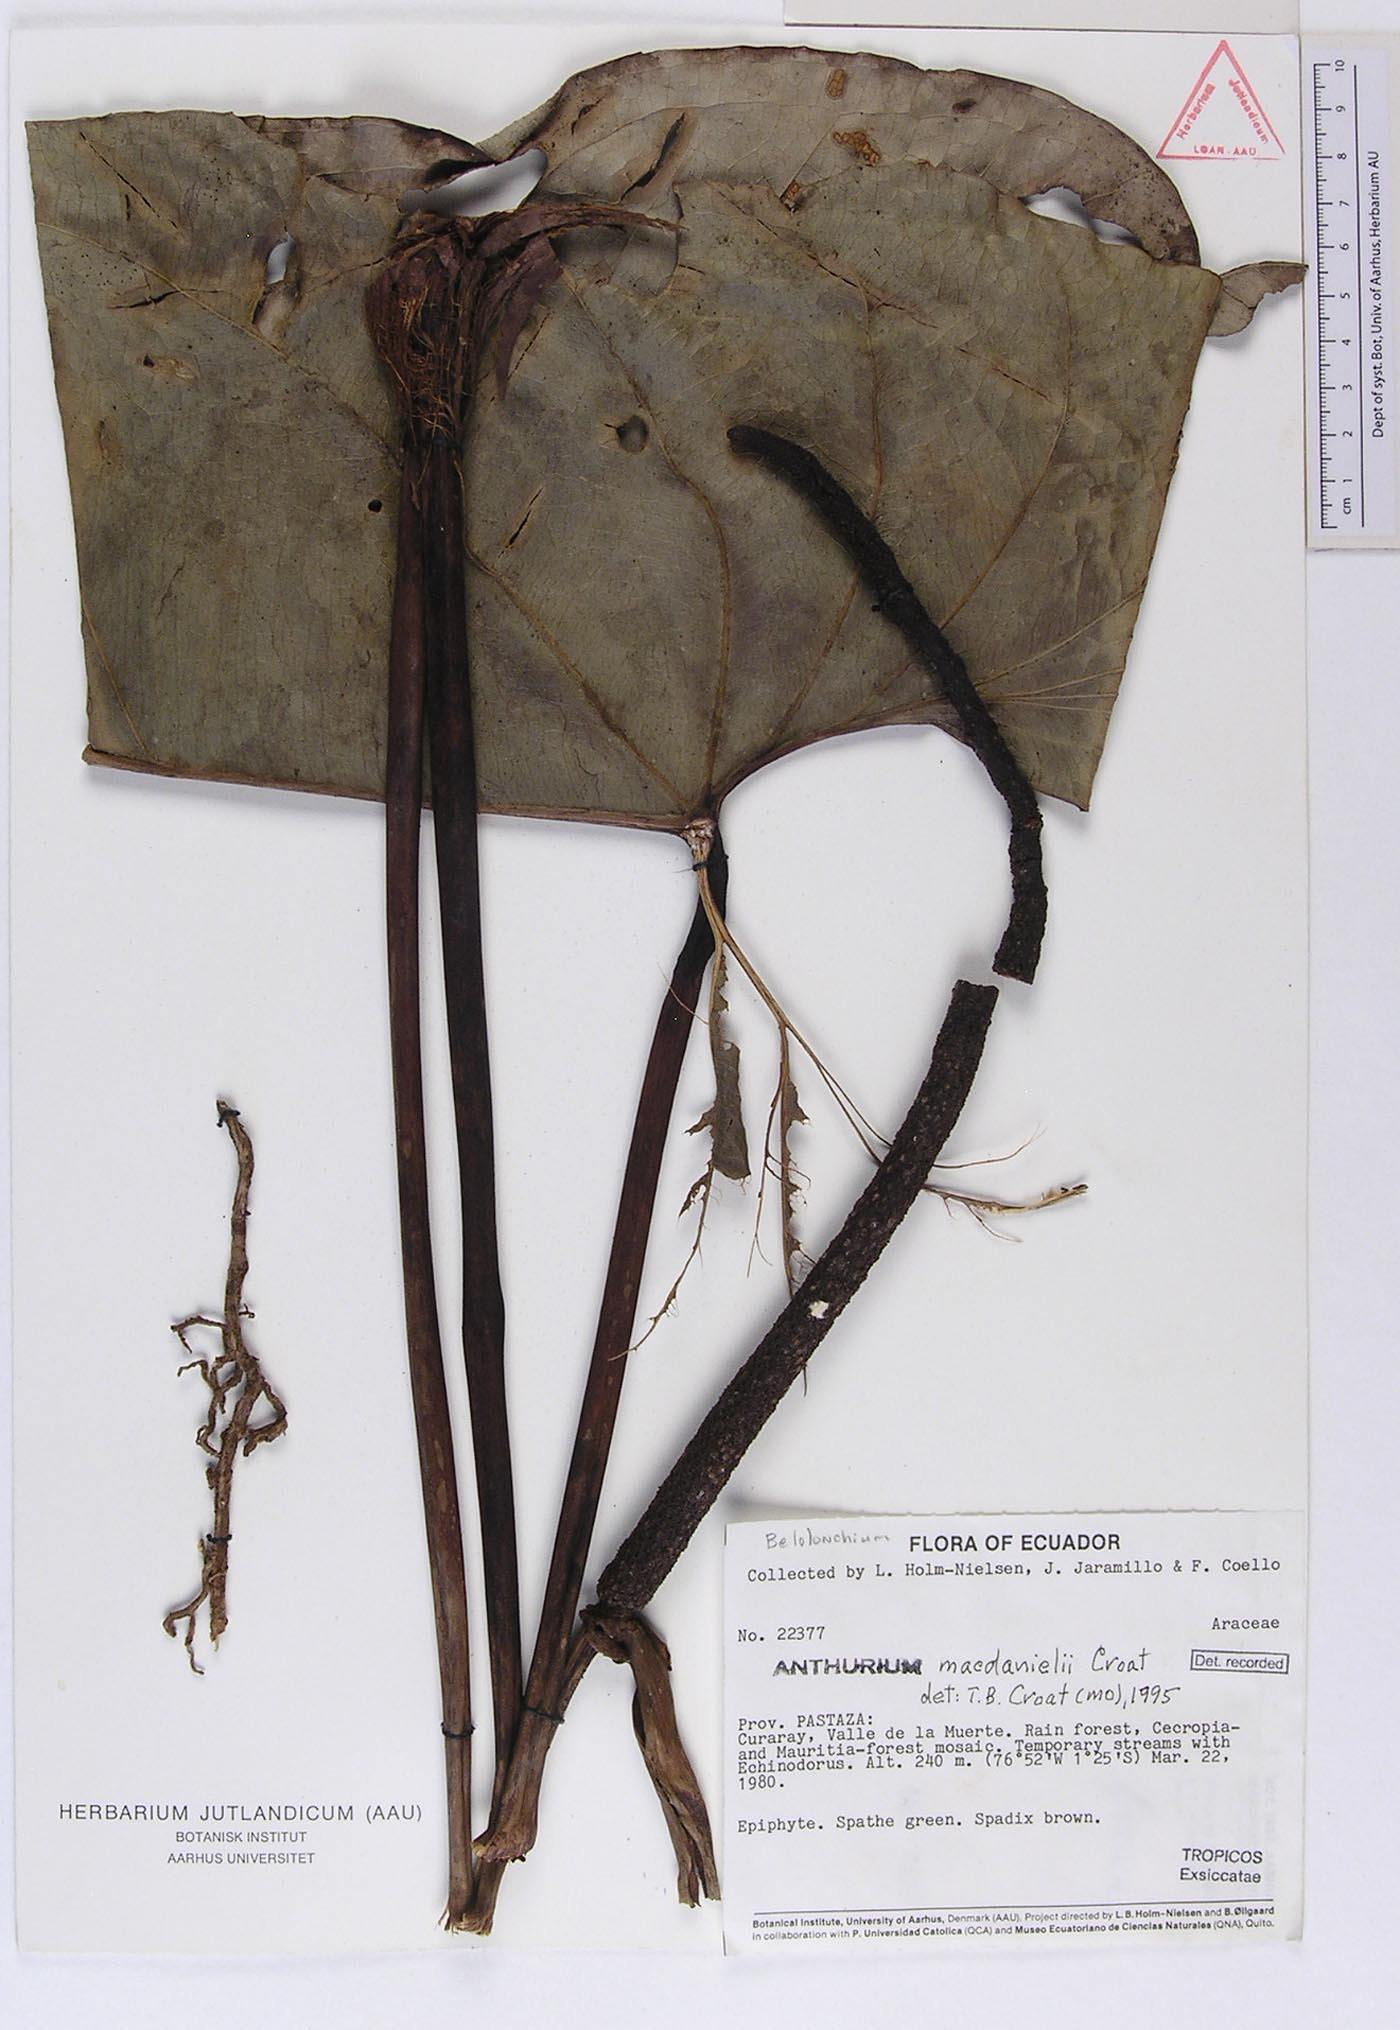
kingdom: Plantae
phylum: Tracheophyta
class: Liliopsida
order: Alismatales
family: Araceae
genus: Anthurium
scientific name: Anthurium macdanielii
